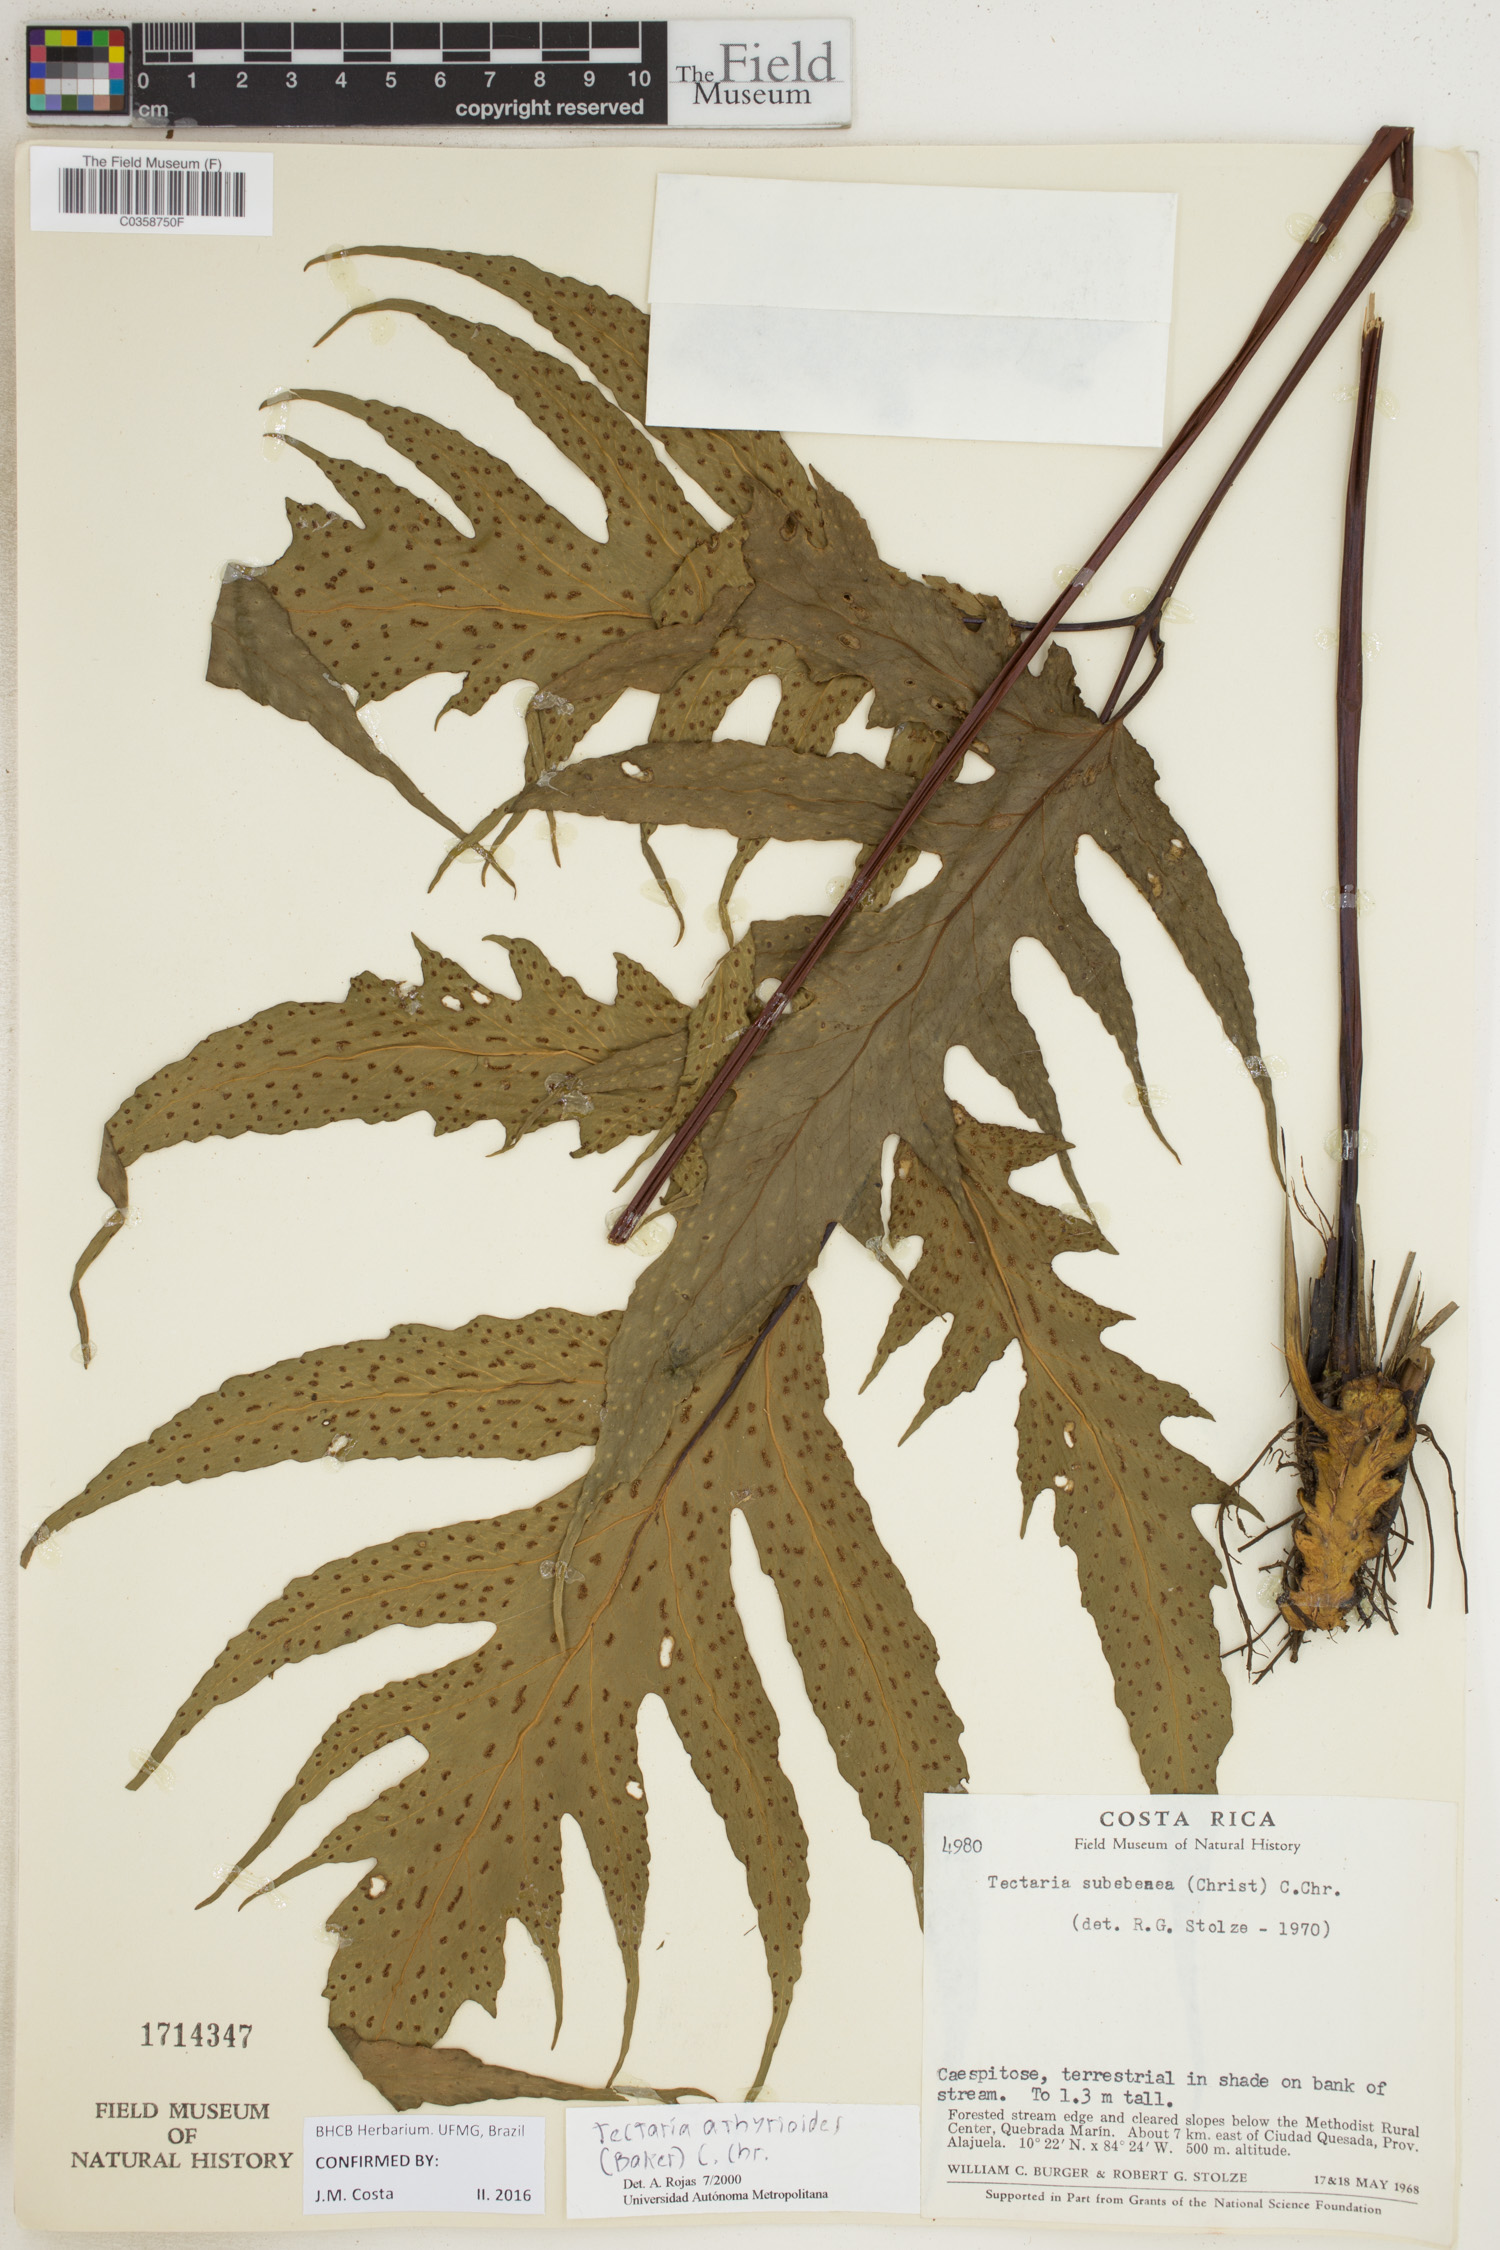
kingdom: Plantae
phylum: Tracheophyta
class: Polypodiopsida
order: Polypodiales
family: Tectariaceae
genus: Tectaria
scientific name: Tectaria athyrioides
